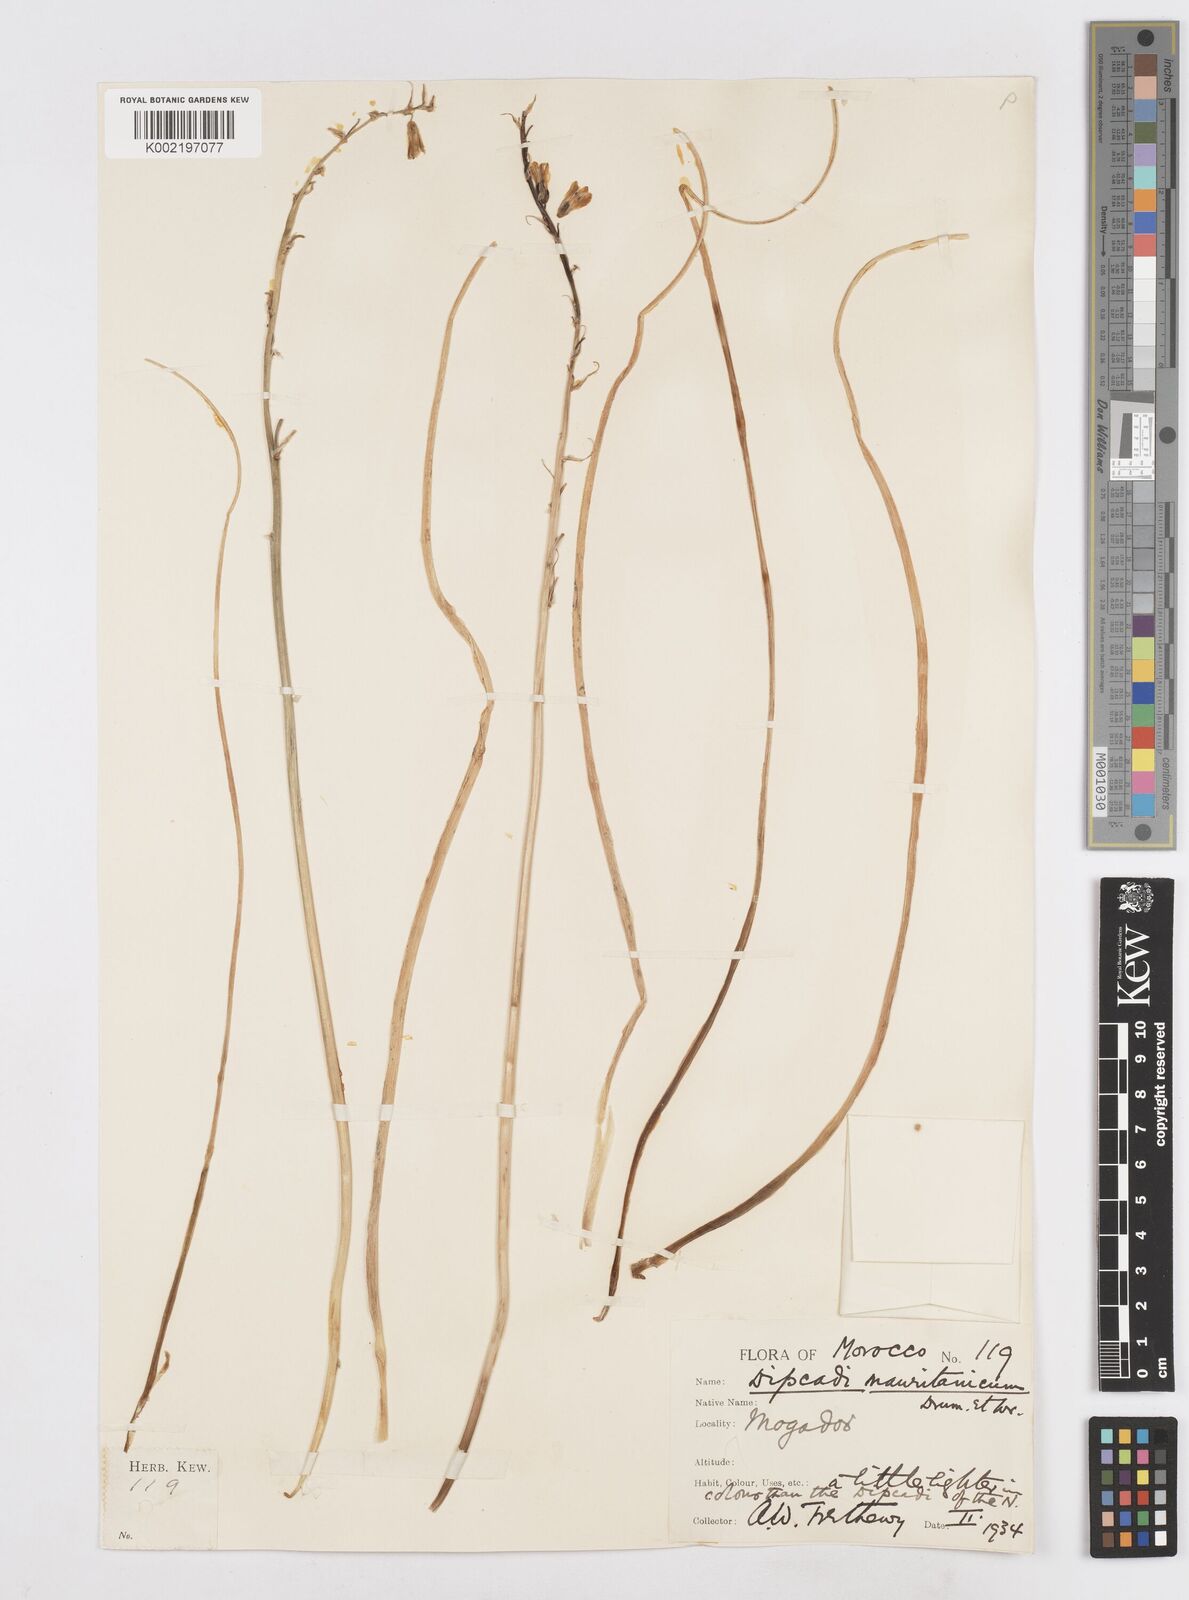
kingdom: Plantae
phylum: Tracheophyta
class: Liliopsida
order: Asparagales
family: Asparagaceae
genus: Dipcadi
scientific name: Dipcadi serotinum
